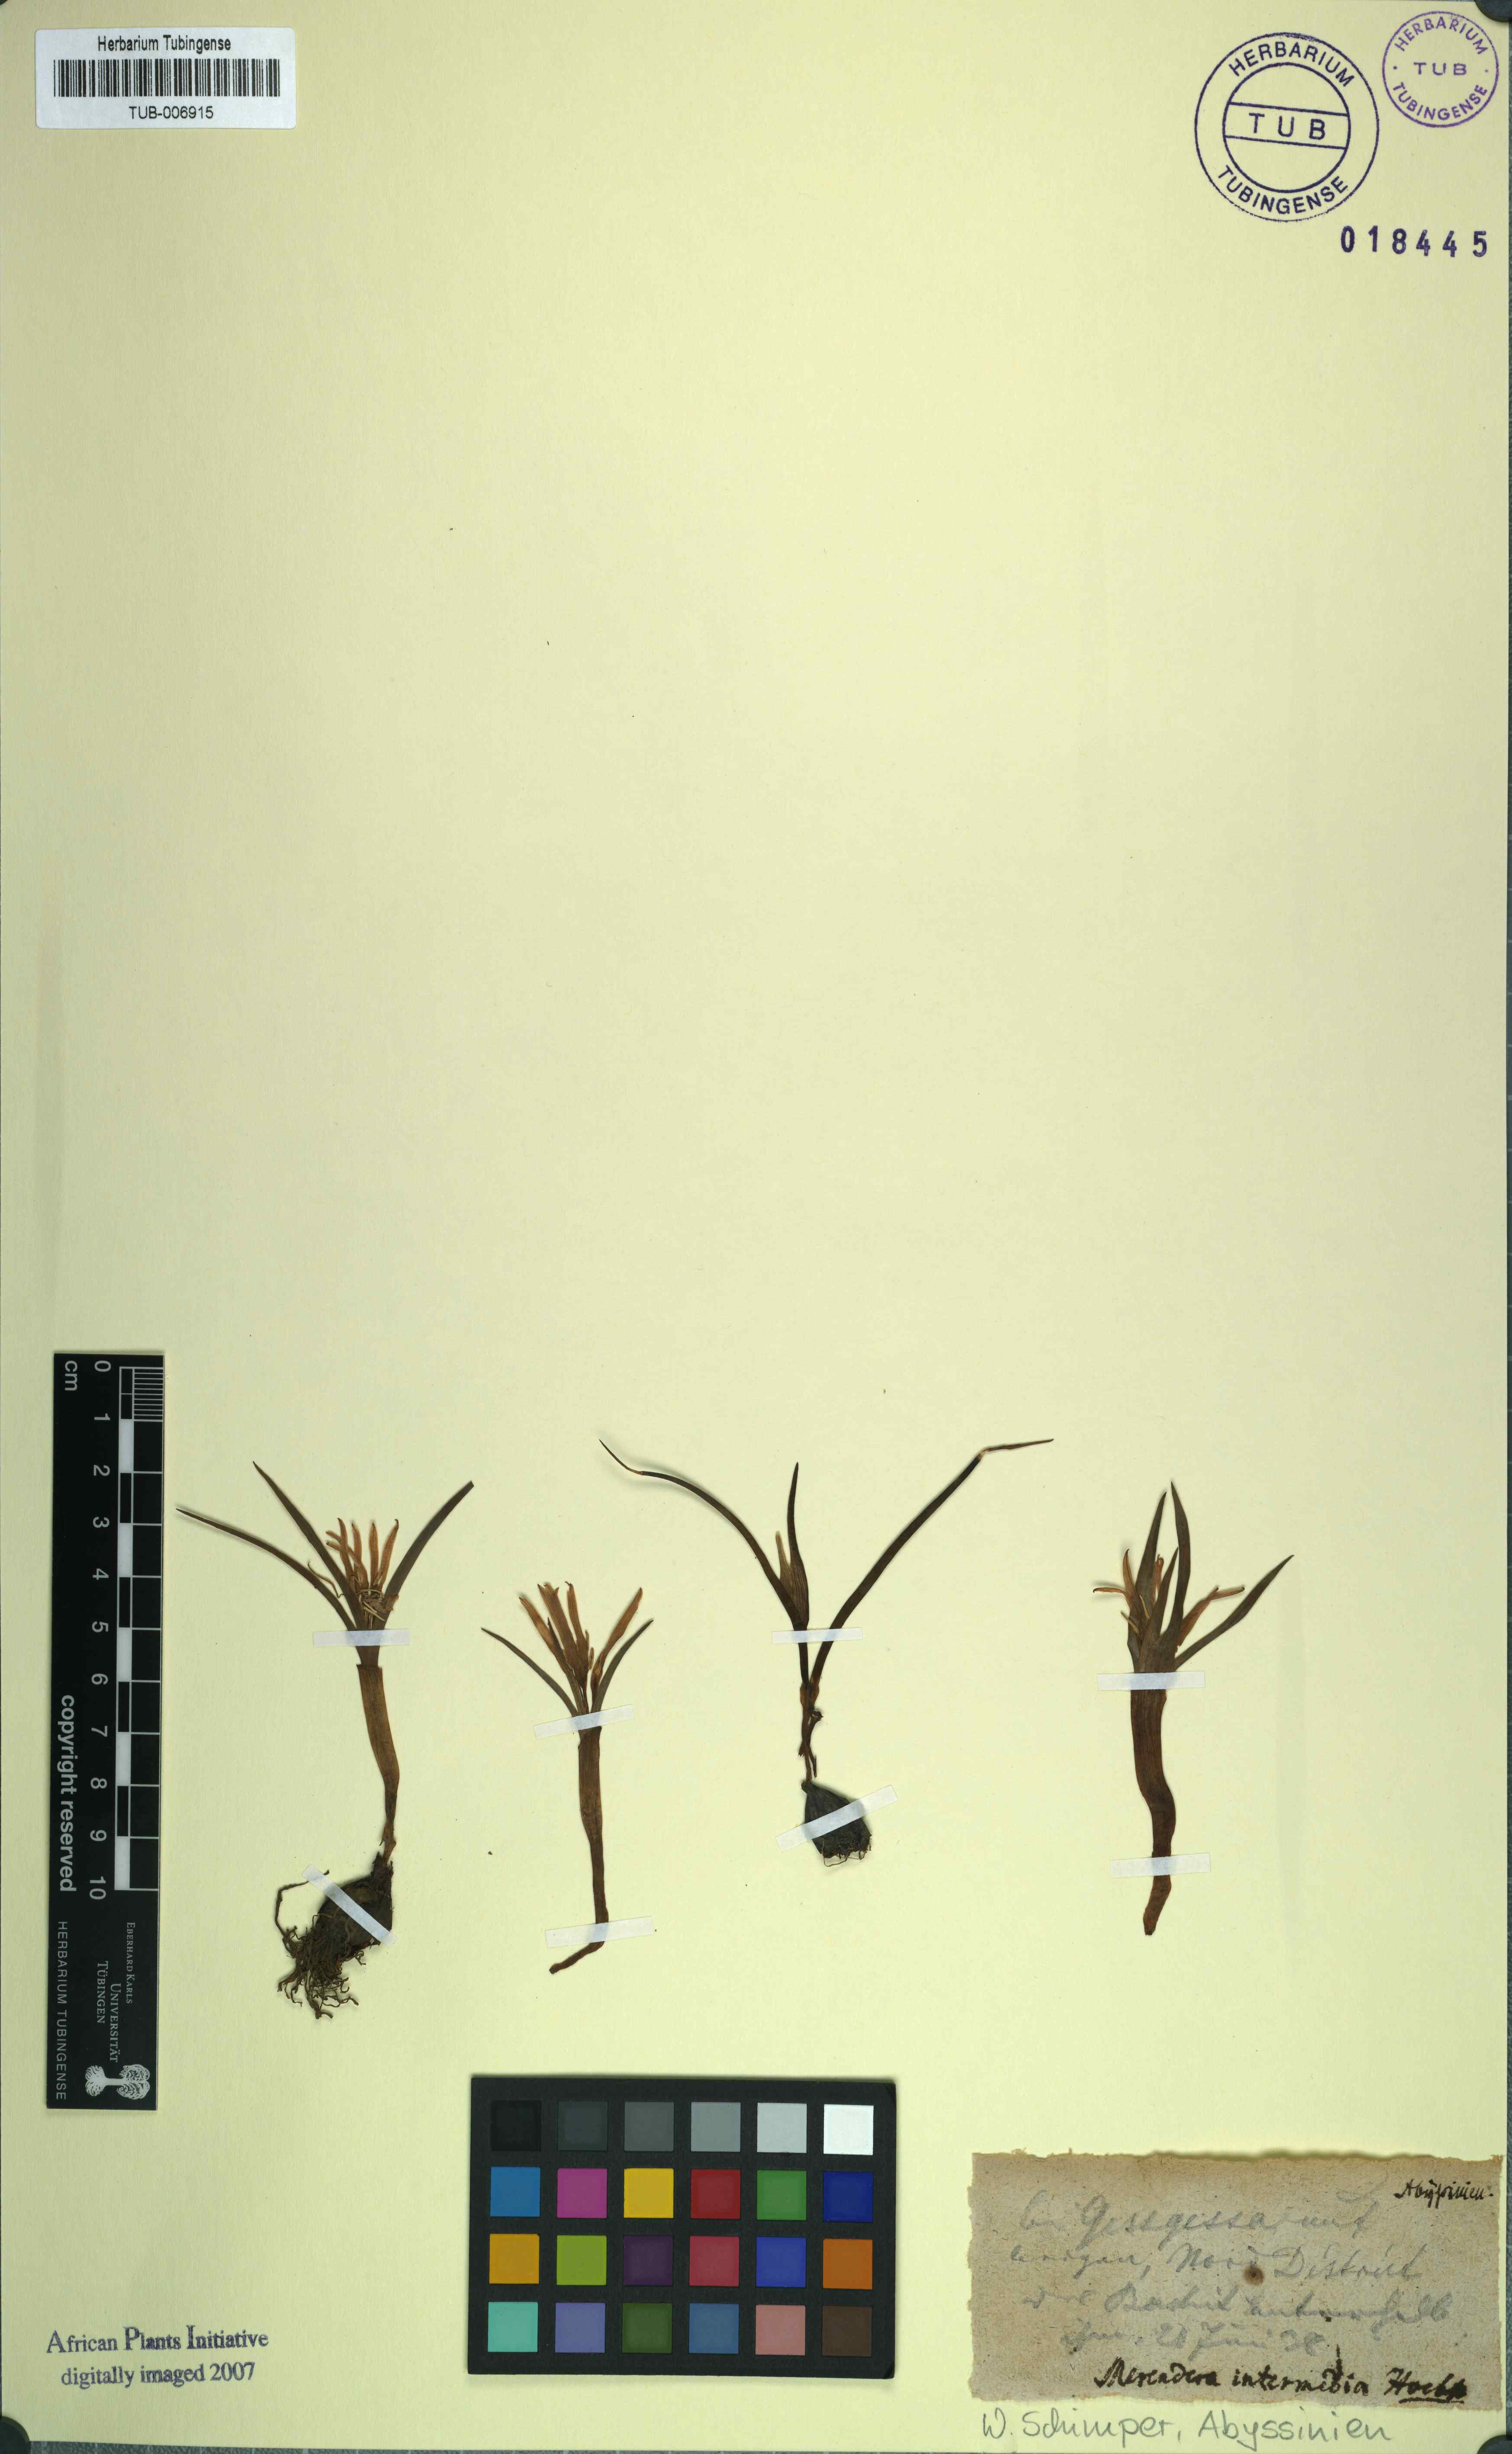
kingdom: Plantae
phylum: Tracheophyta
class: Liliopsida
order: Liliales
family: Colchicaceae
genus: Colchicum
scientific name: Colchicum
